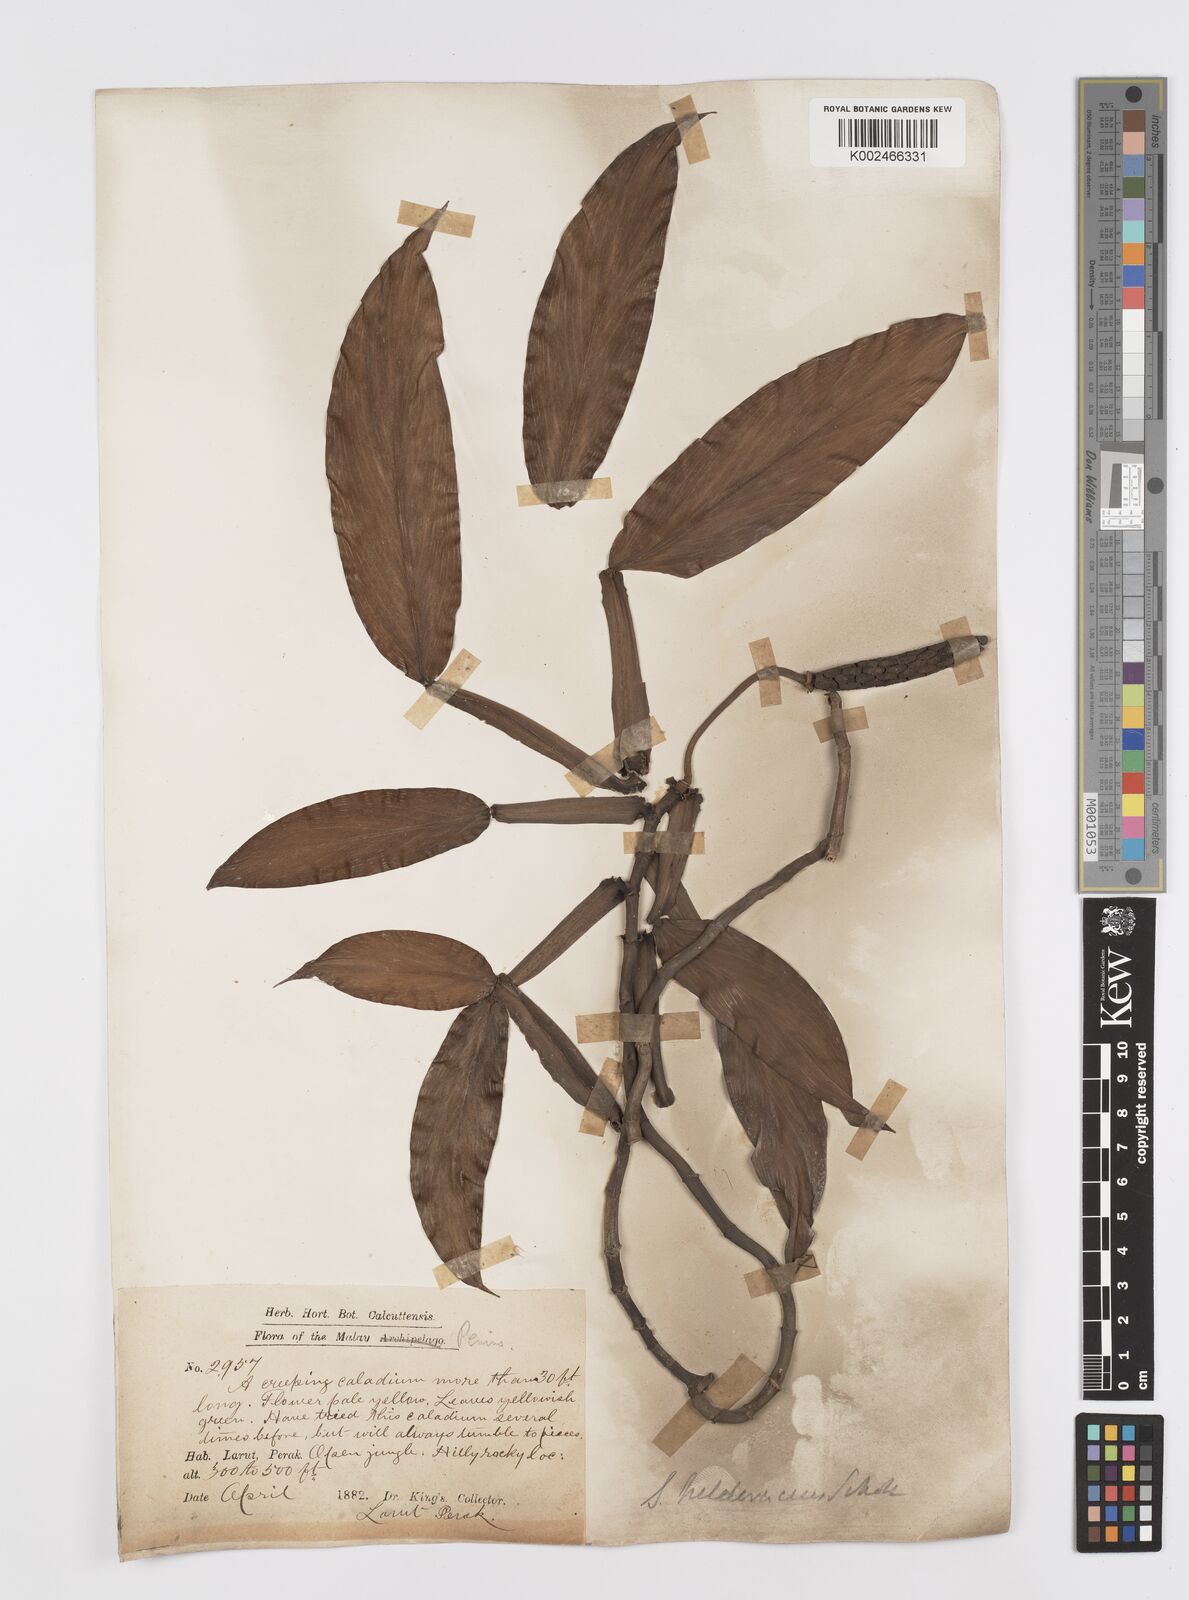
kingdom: Plantae
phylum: Tracheophyta
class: Liliopsida
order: Alismatales
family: Araceae
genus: Scindapsus
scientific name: Scindapsus hederaceus
